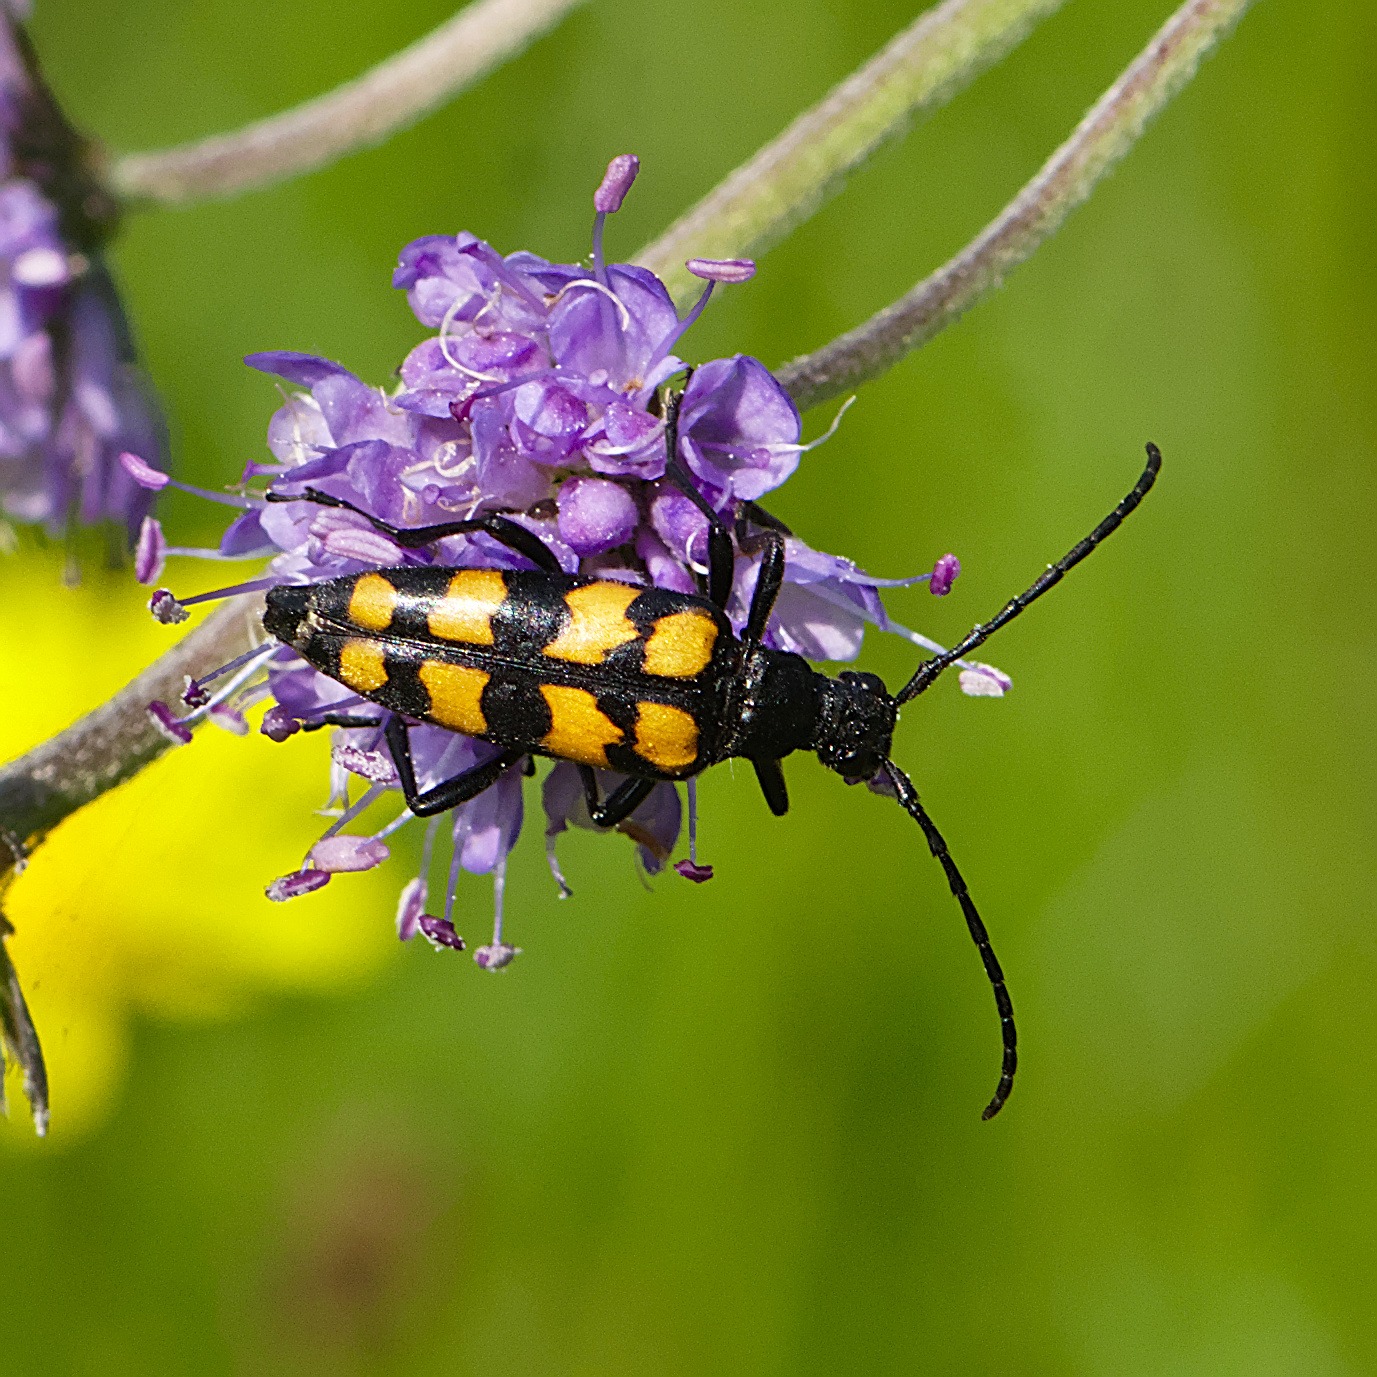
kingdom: Animalia
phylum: Arthropoda
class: Insecta
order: Coleoptera
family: Cerambycidae
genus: Leptura
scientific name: Leptura quadrifasciata
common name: Firebåndet blomsterbuk
